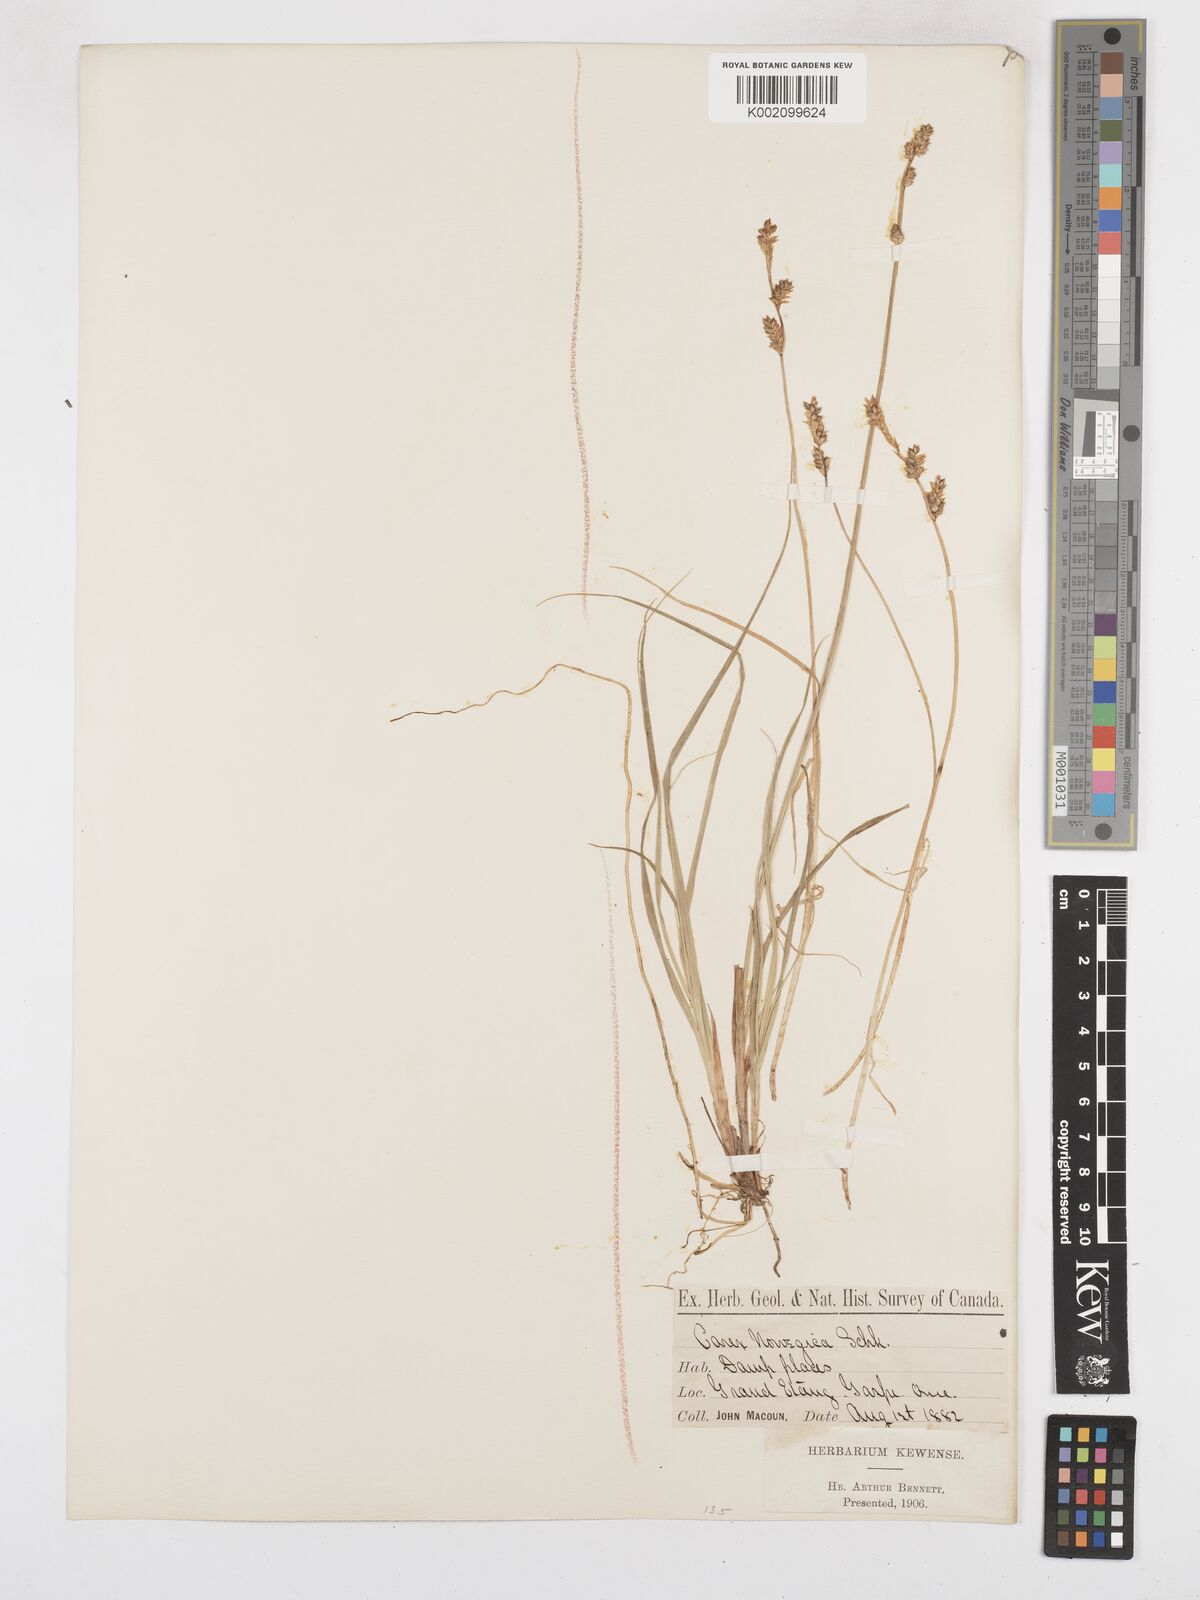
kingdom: Plantae
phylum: Tracheophyta
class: Liliopsida
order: Poales
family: Cyperaceae
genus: Carex
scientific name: Carex mackenziei
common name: Mackenzie's sedge
